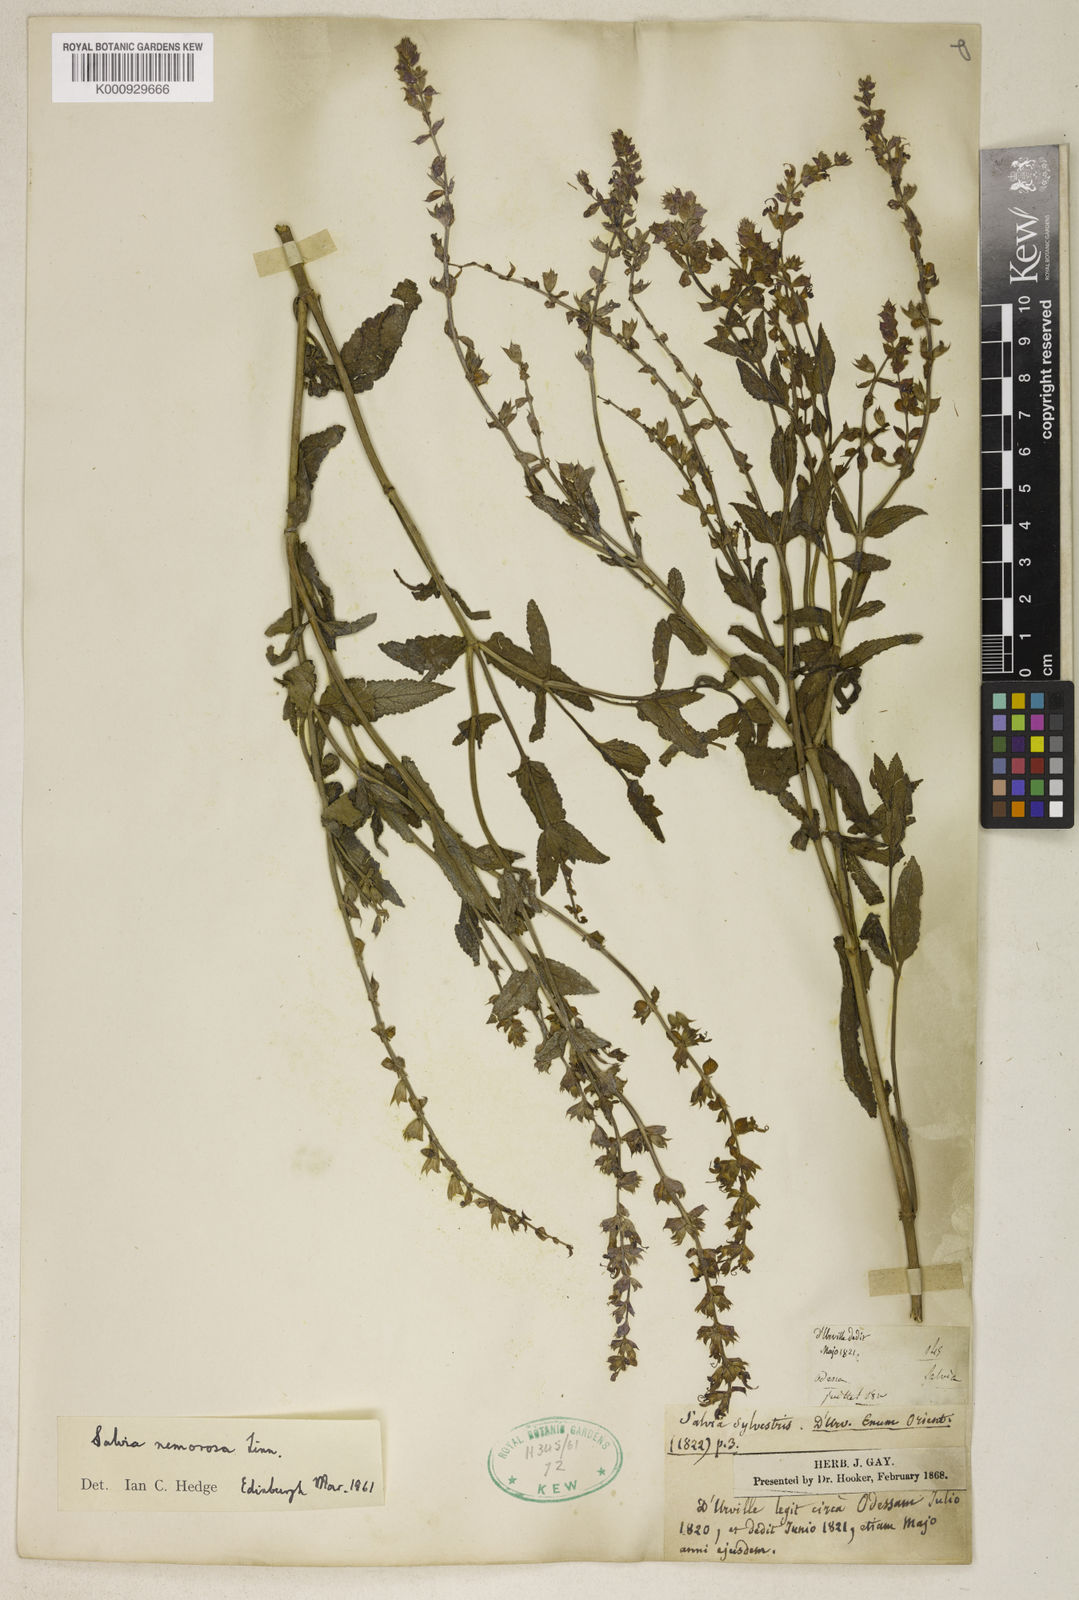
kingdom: Plantae
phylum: Tracheophyta
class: Magnoliopsida
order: Lamiales
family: Lamiaceae
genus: Salvia
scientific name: Salvia nemorosa
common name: Balkan clary
